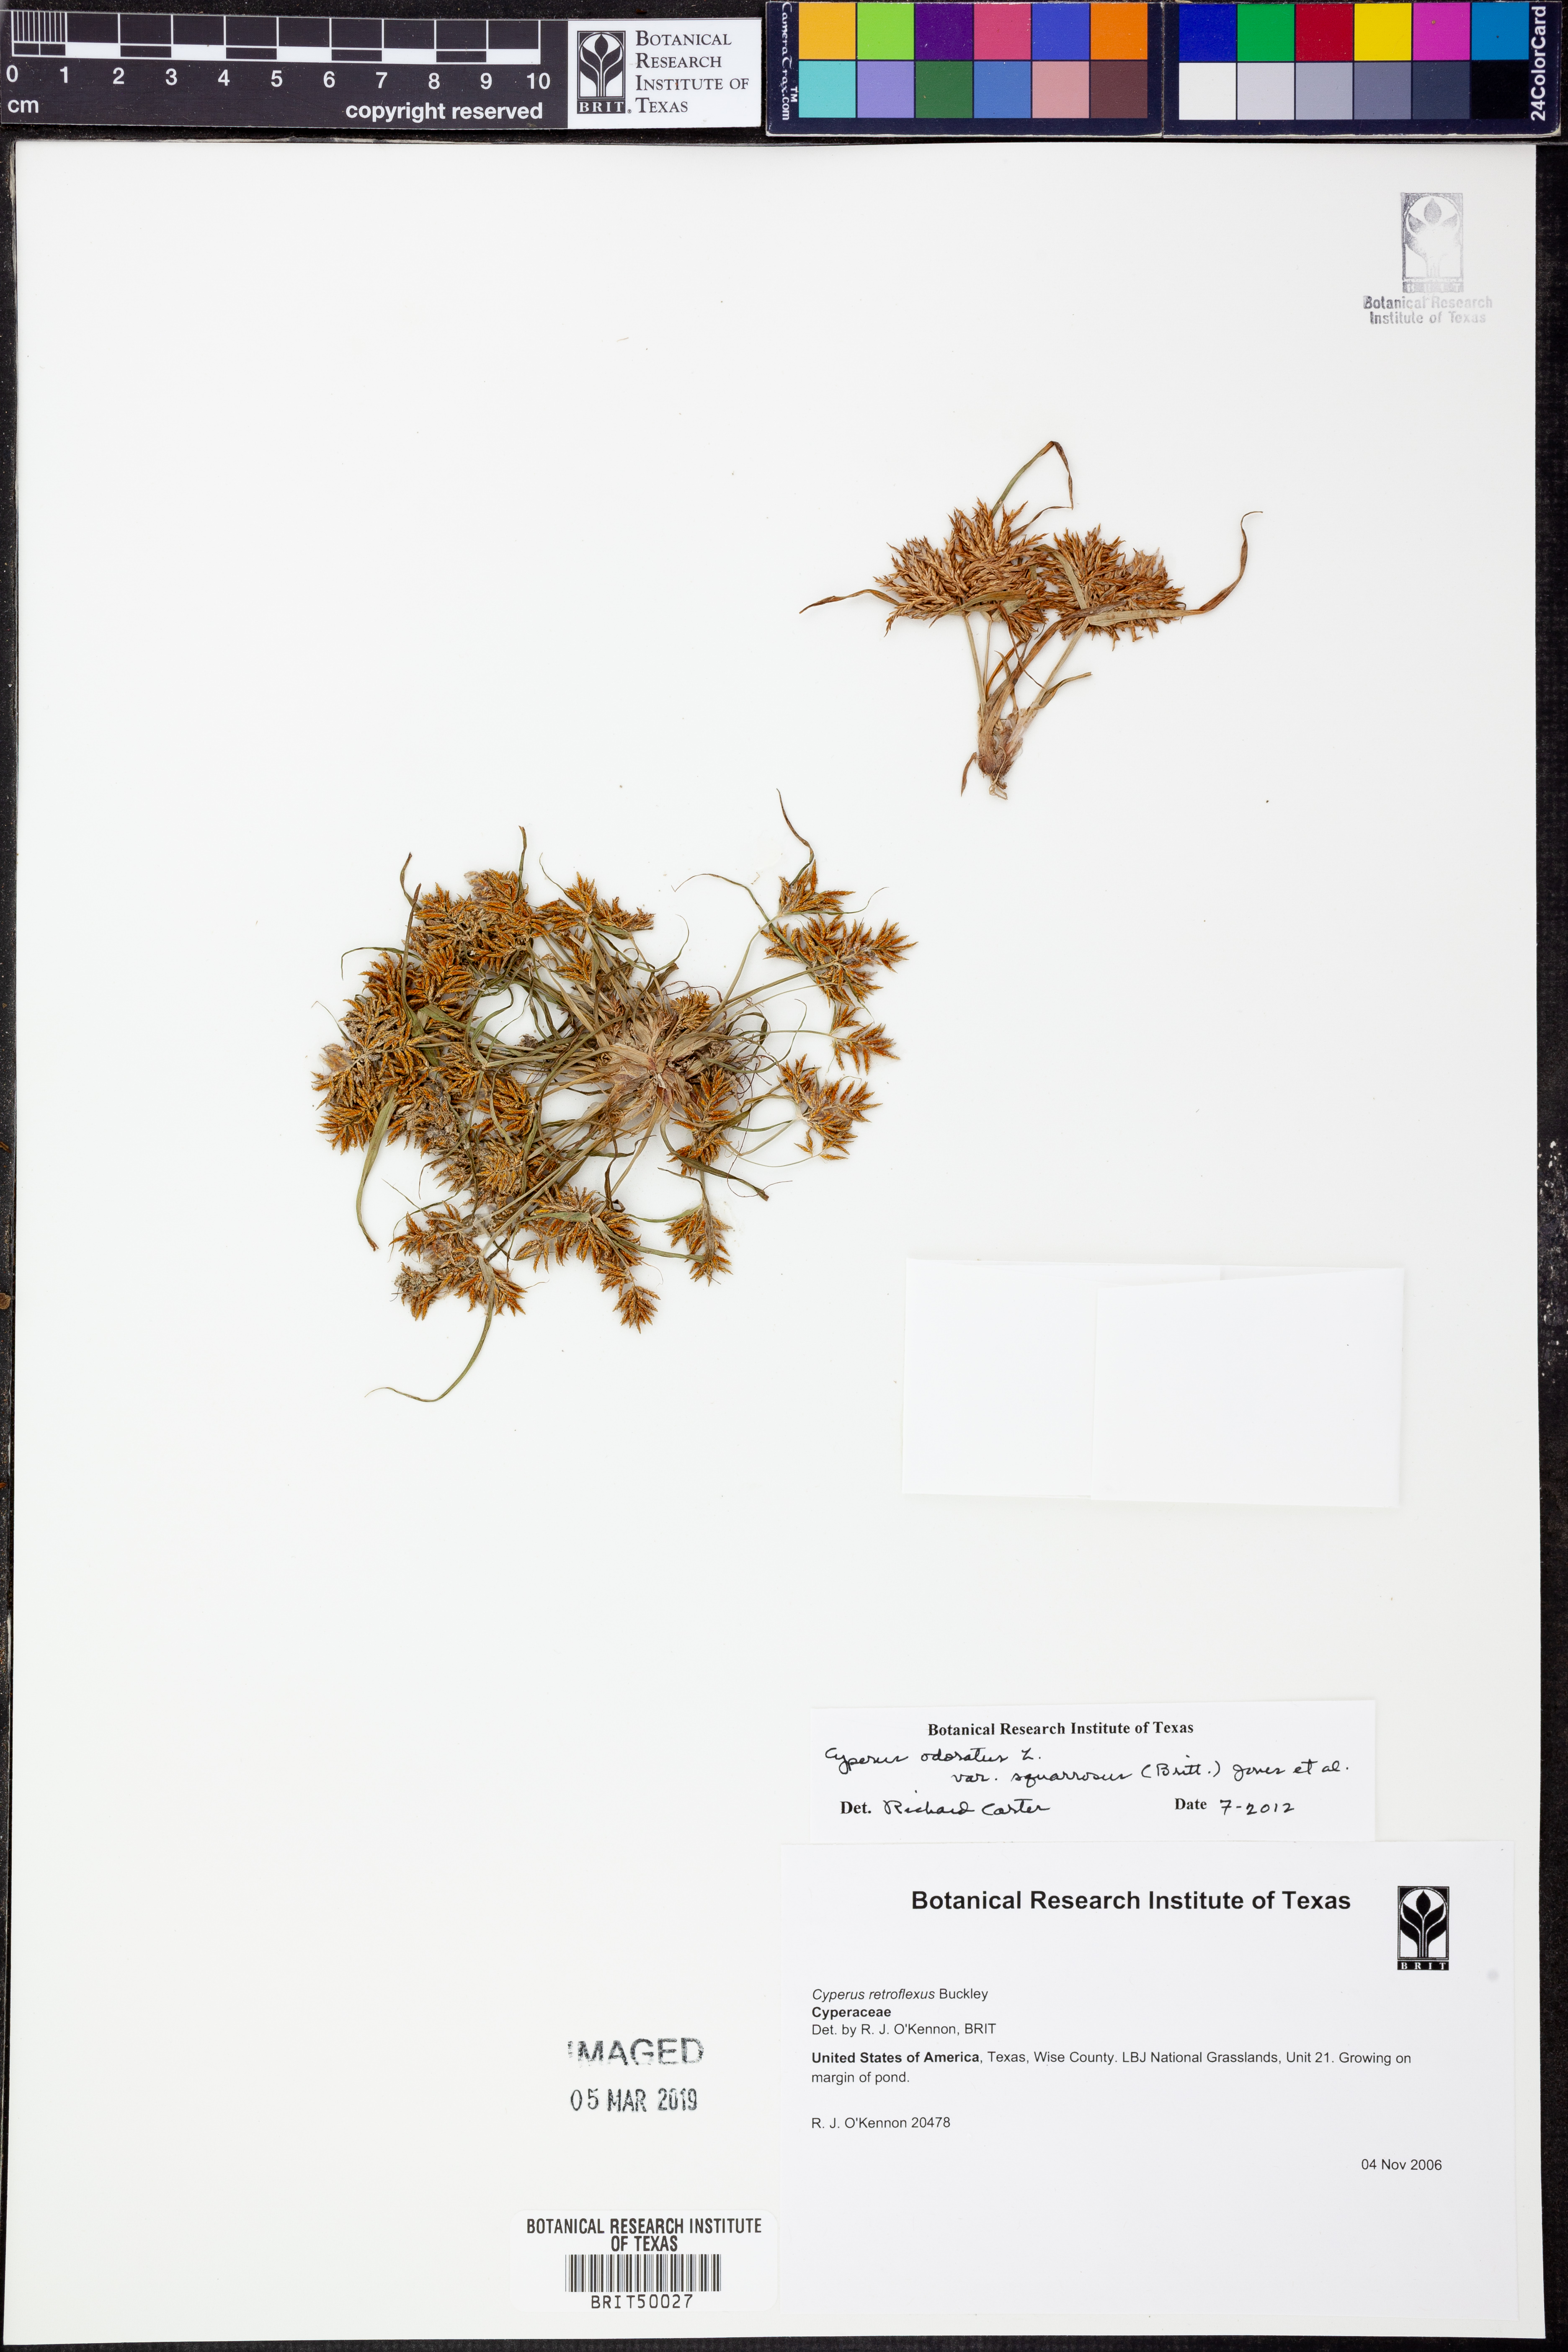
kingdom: Plantae
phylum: Tracheophyta
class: Liliopsida
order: Poales
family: Cyperaceae
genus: Cyperus
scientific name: Cyperus odoratus
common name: Fragrant flatsedge
